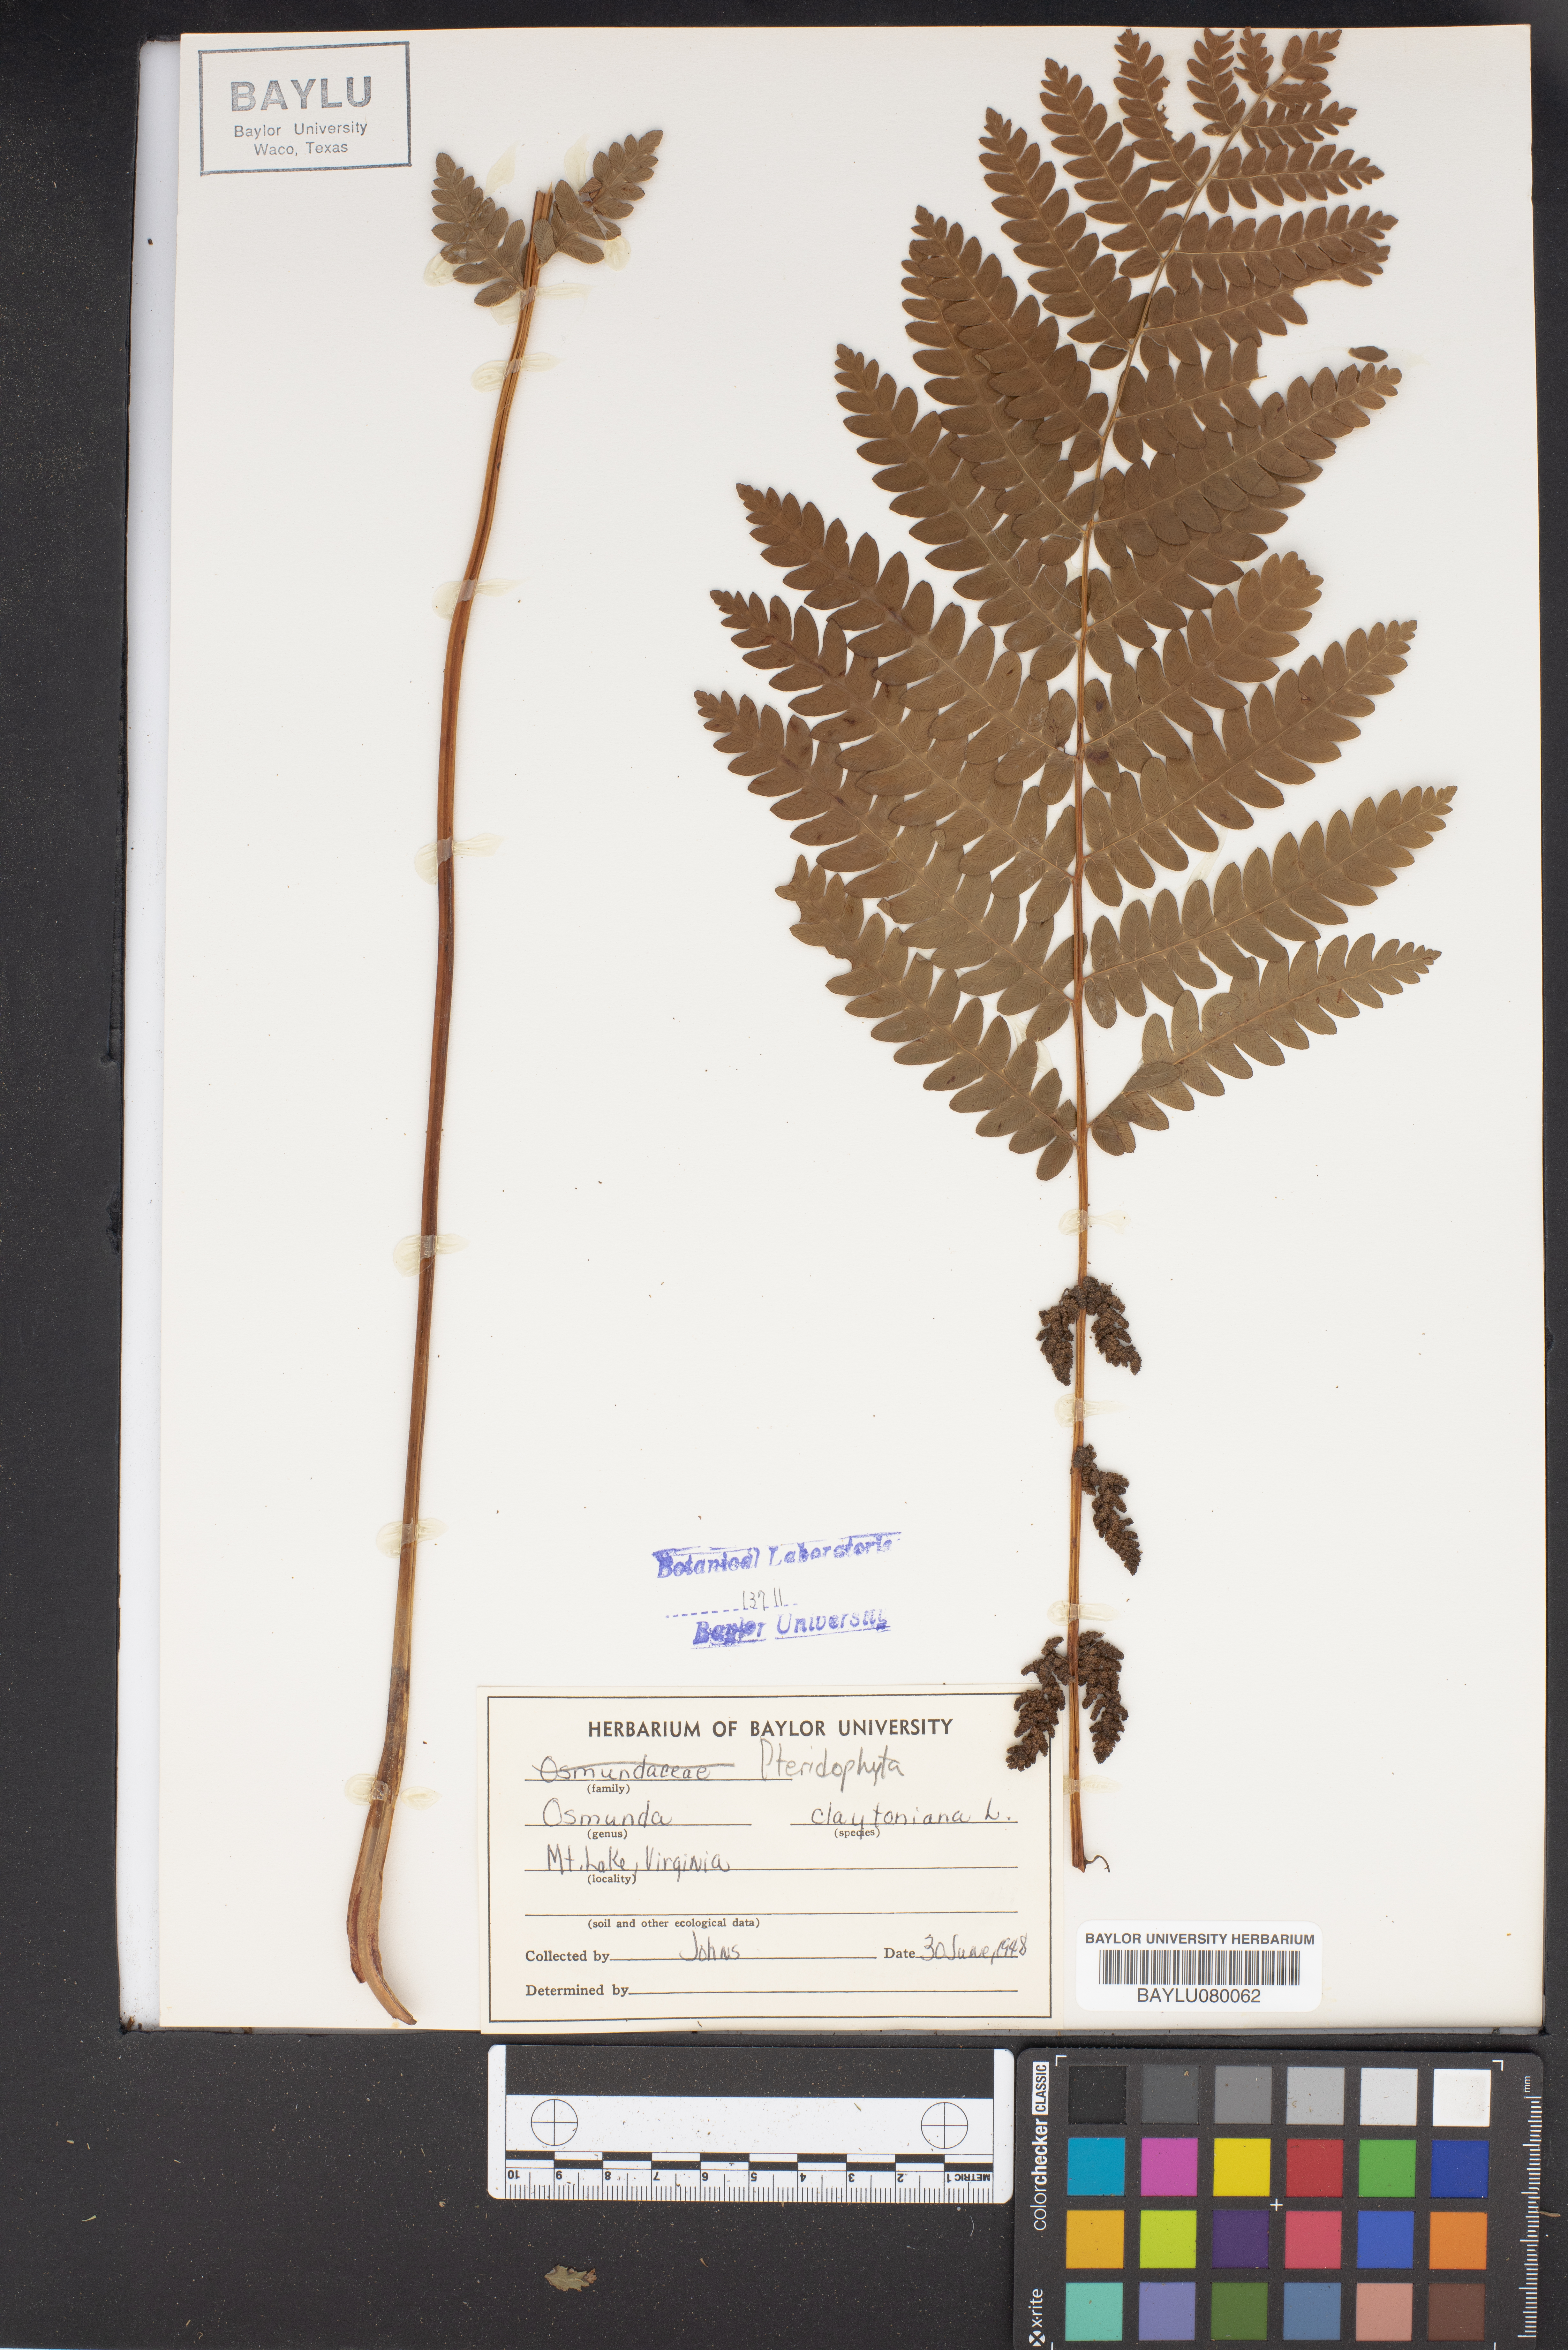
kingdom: Plantae
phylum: Tracheophyta
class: Polypodiopsida
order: Osmundales
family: Osmundaceae
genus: Claytosmunda
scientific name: Claytosmunda claytoniana
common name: Clayton's fern
